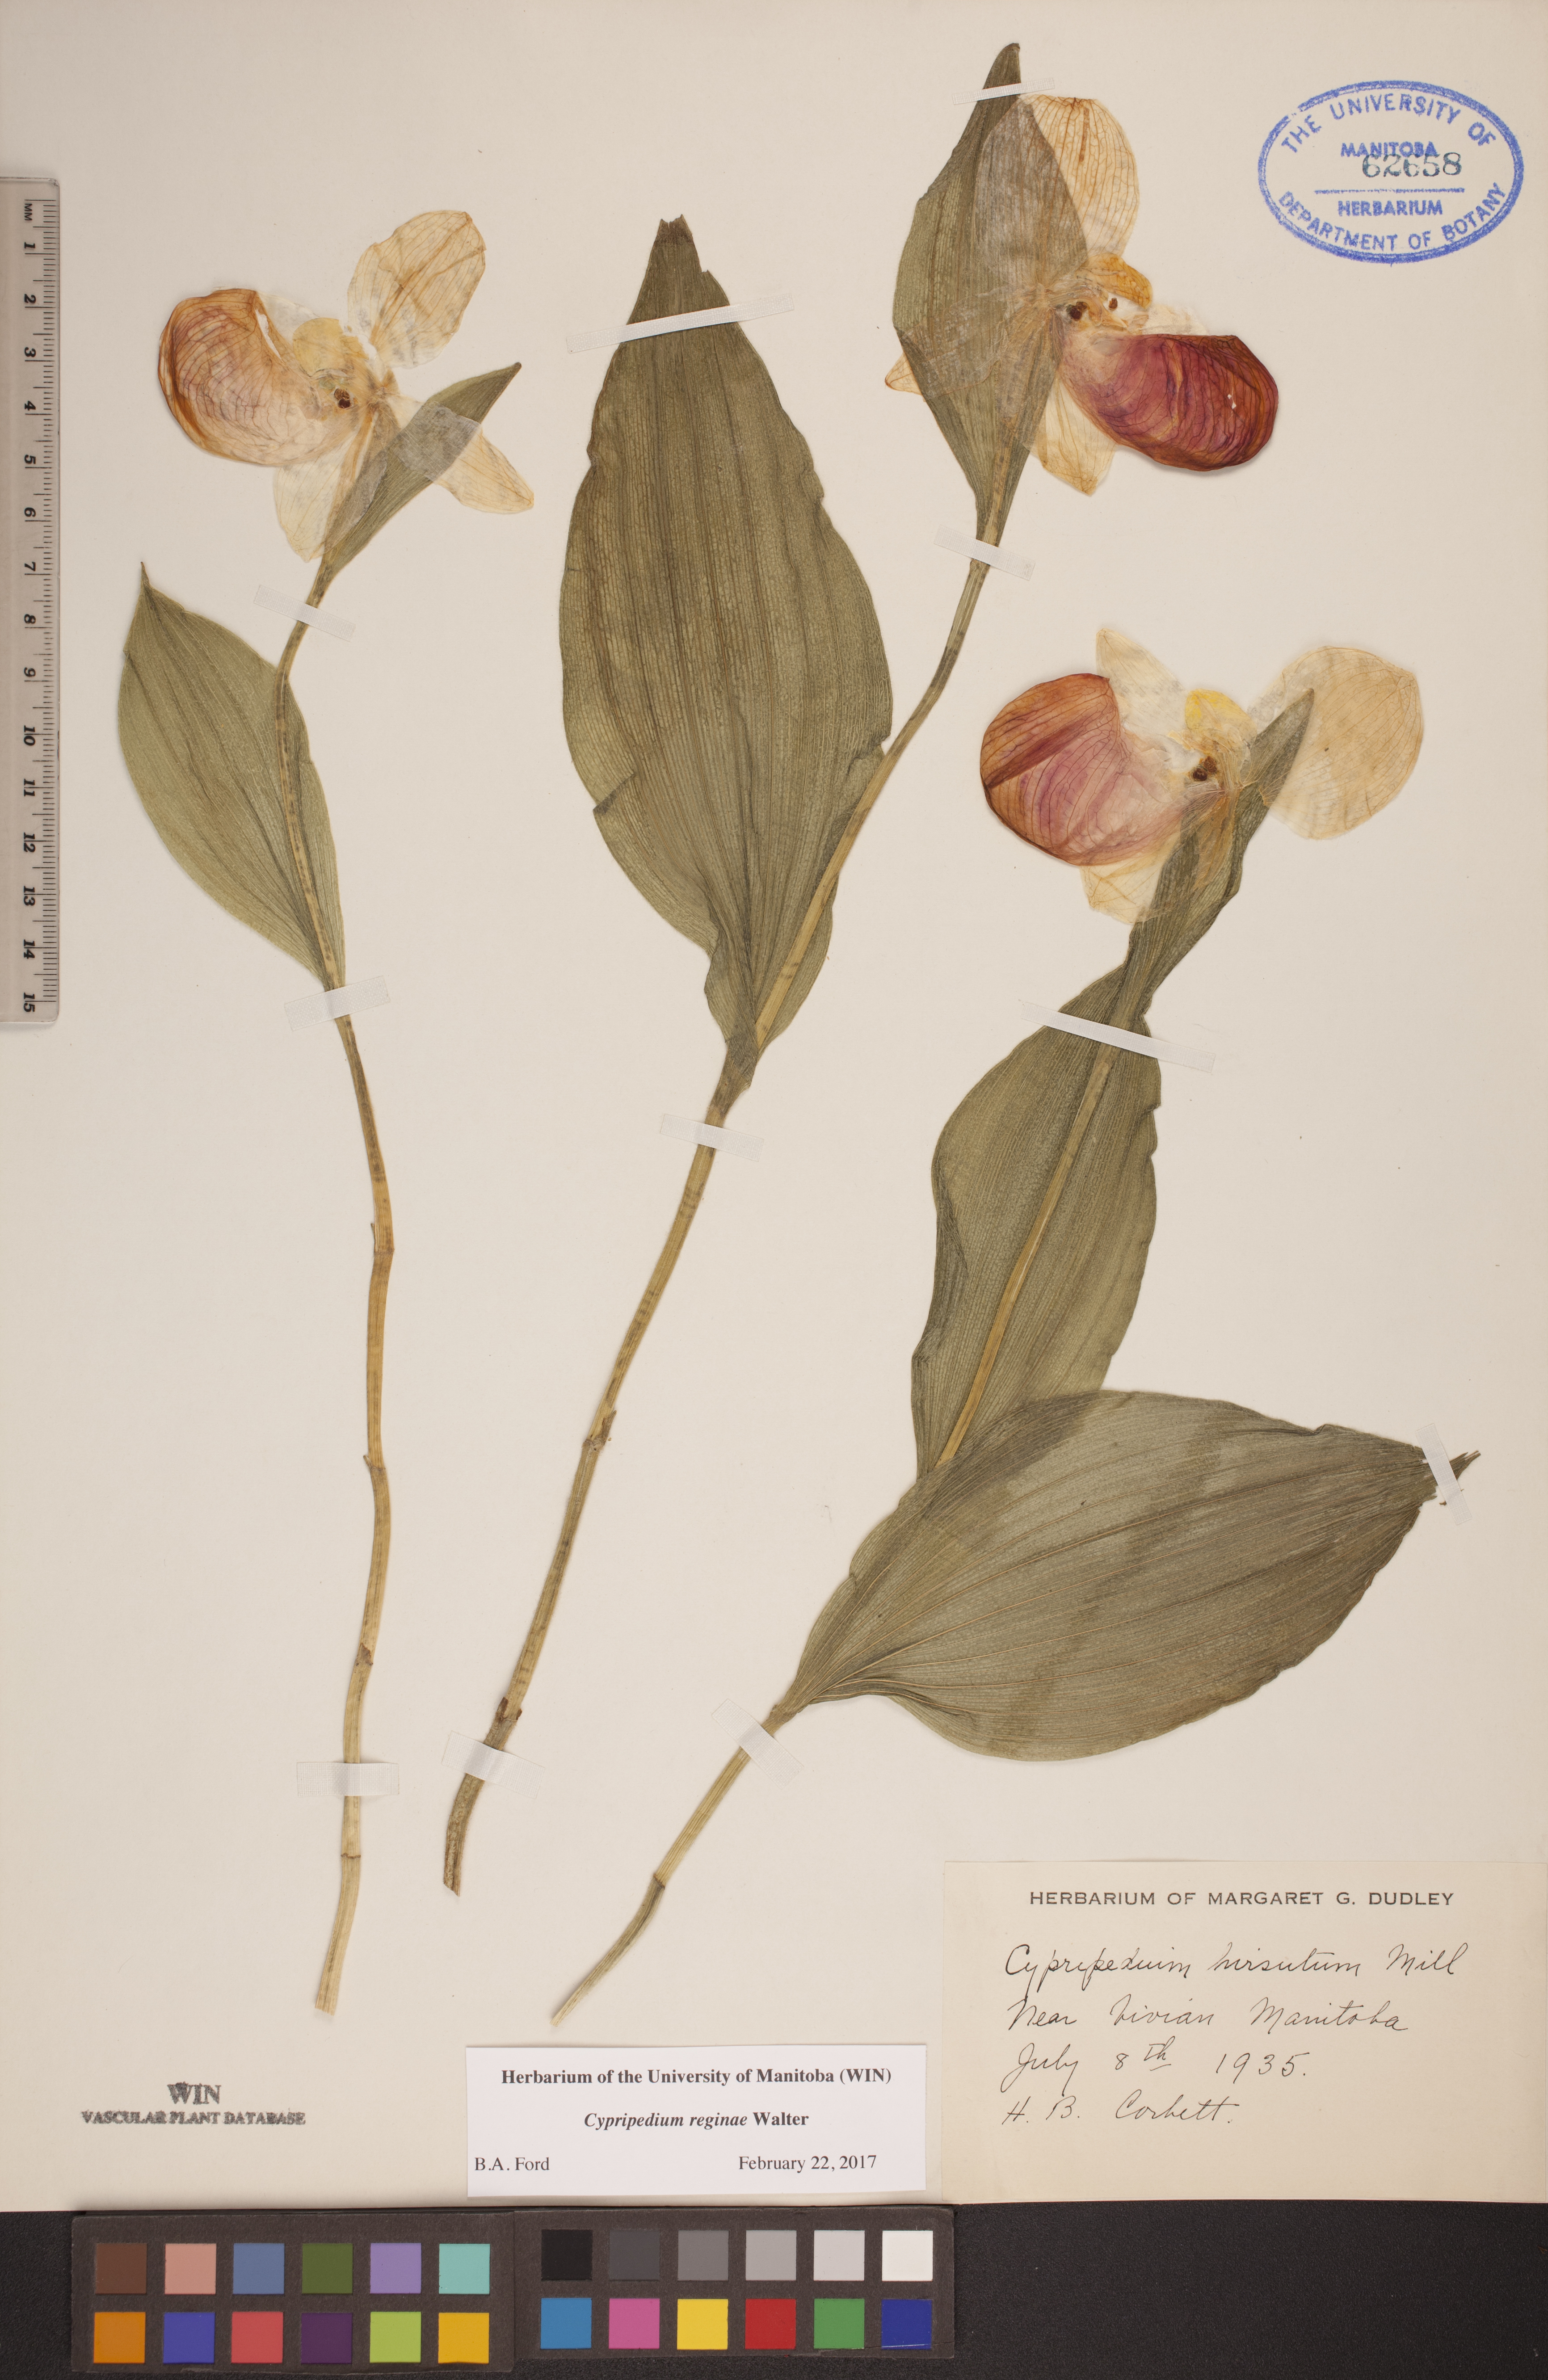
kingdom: Plantae
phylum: Tracheophyta
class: Liliopsida
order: Asparagales
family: Orchidaceae
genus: Cypripedium
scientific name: Cypripedium reginae
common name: Queen lady's-slipper
